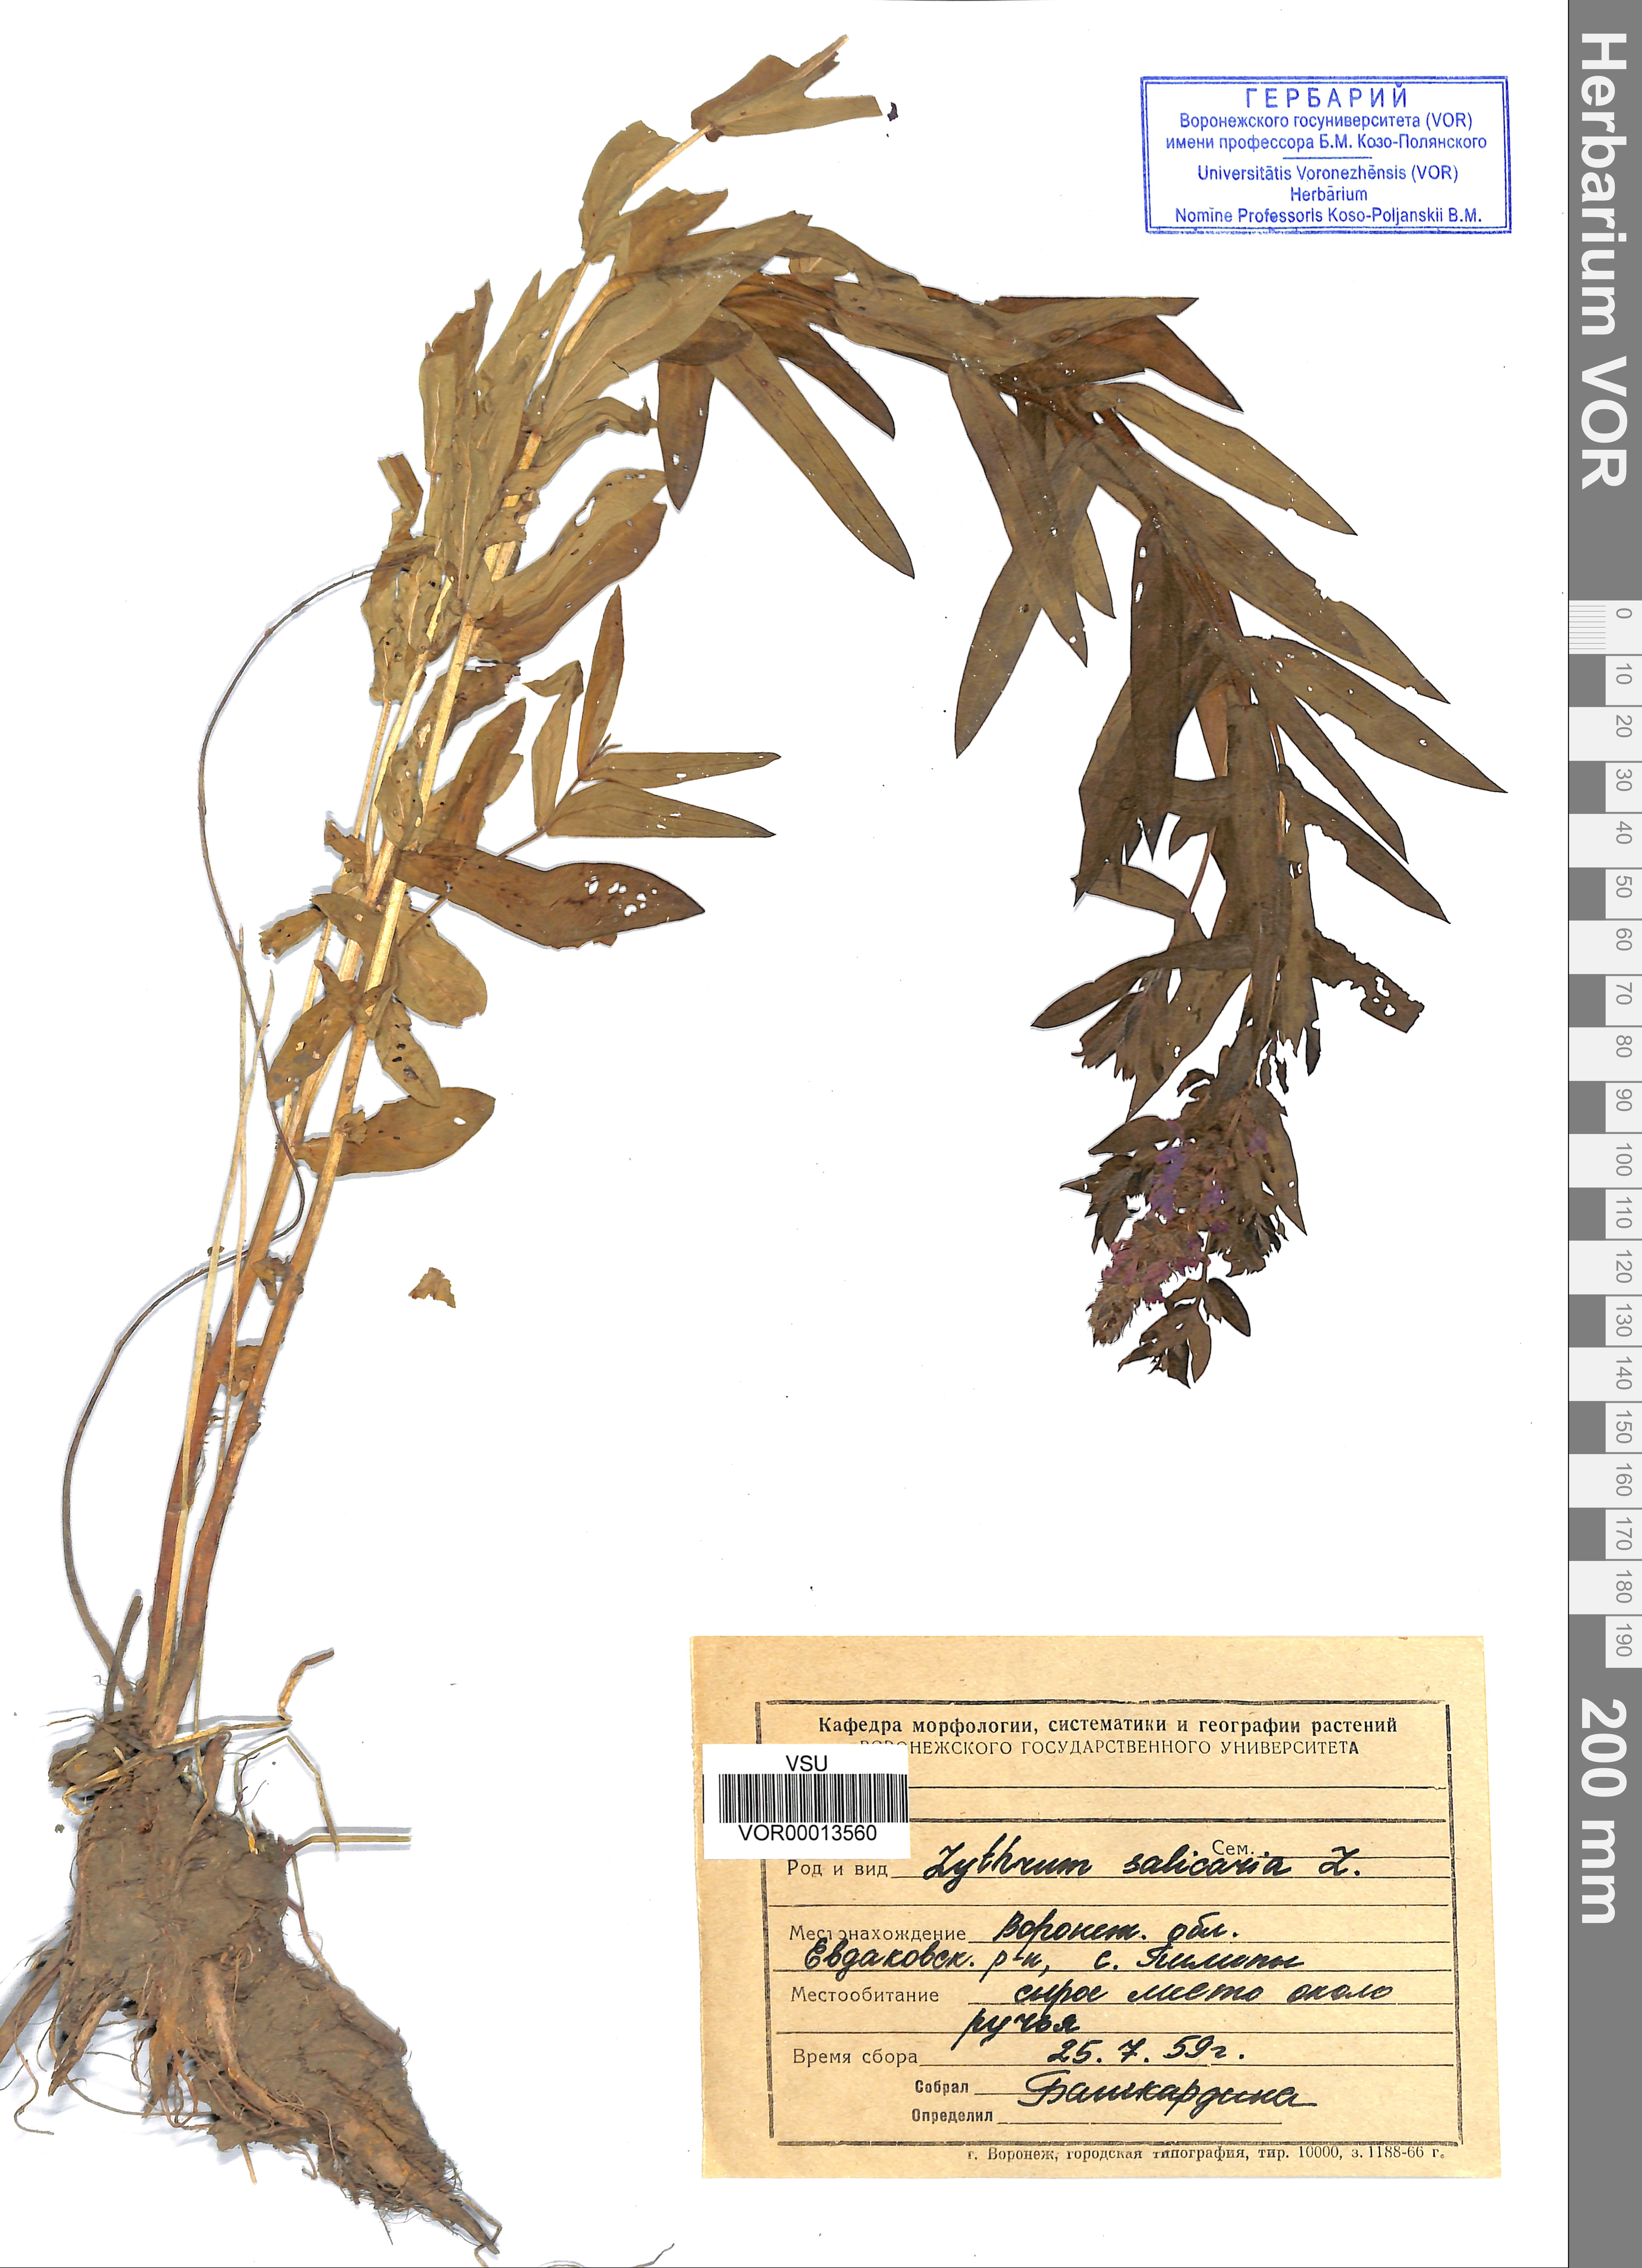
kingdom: Plantae
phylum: Tracheophyta
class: Magnoliopsida
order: Myrtales
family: Lythraceae
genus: Lythrum
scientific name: Lythrum salicaria
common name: Purple loosestrife
